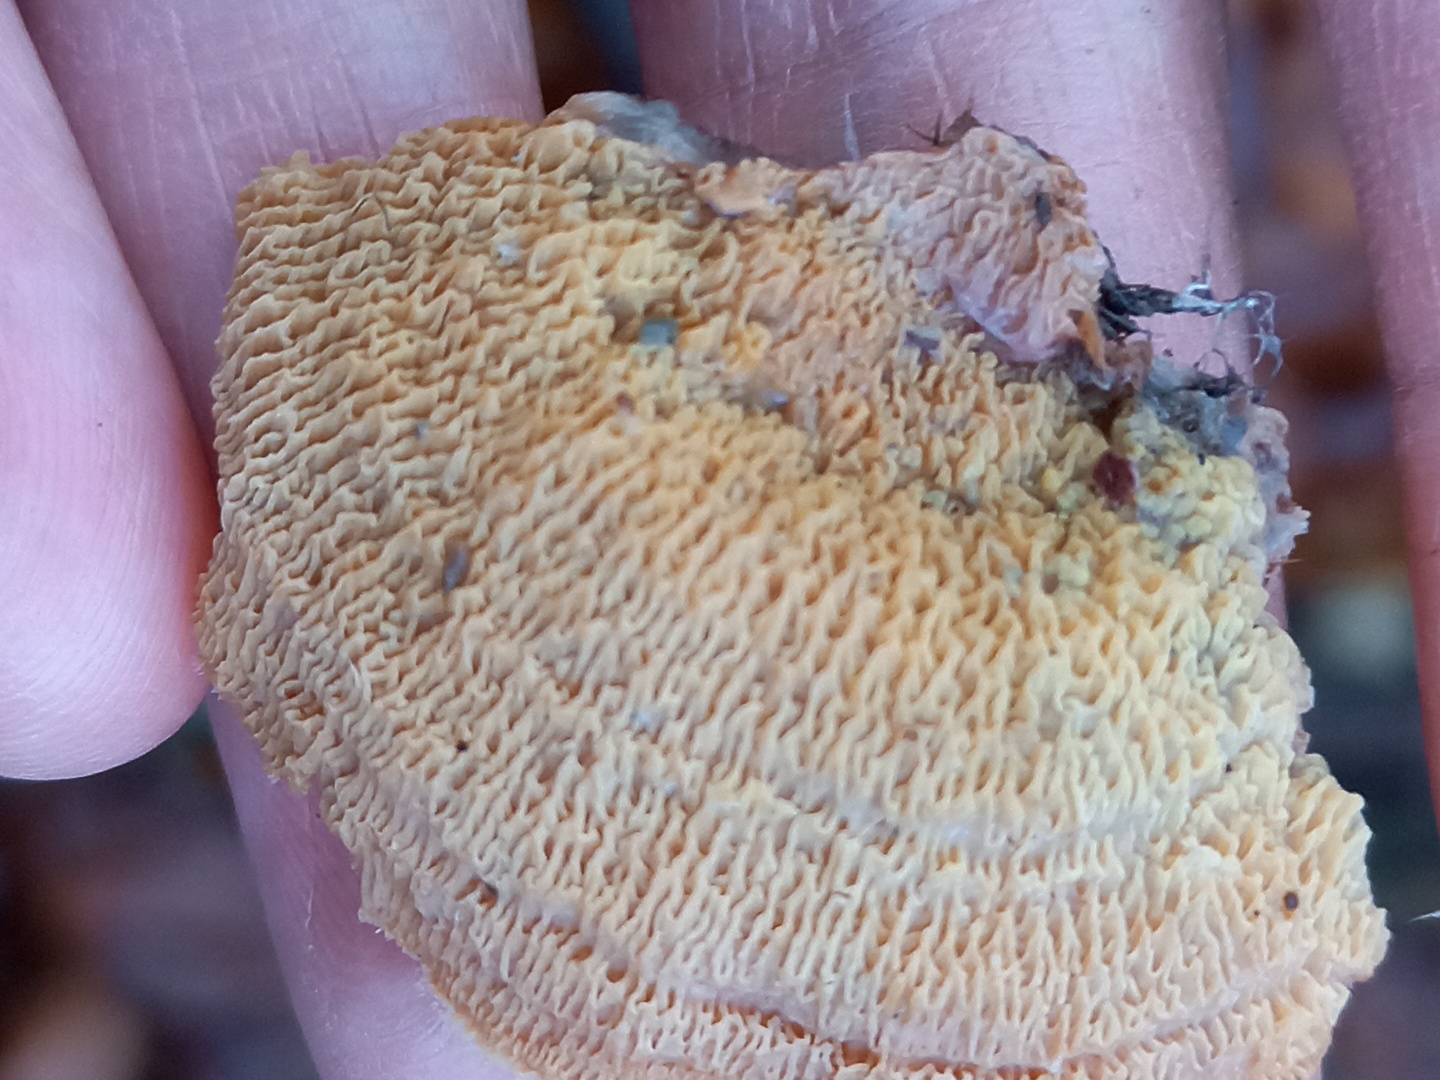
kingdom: Fungi
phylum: Basidiomycota
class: Agaricomycetes
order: Polyporales
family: Meruliaceae
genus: Phlebia
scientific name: Phlebia tremellosa
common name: bævrende åresvamp
